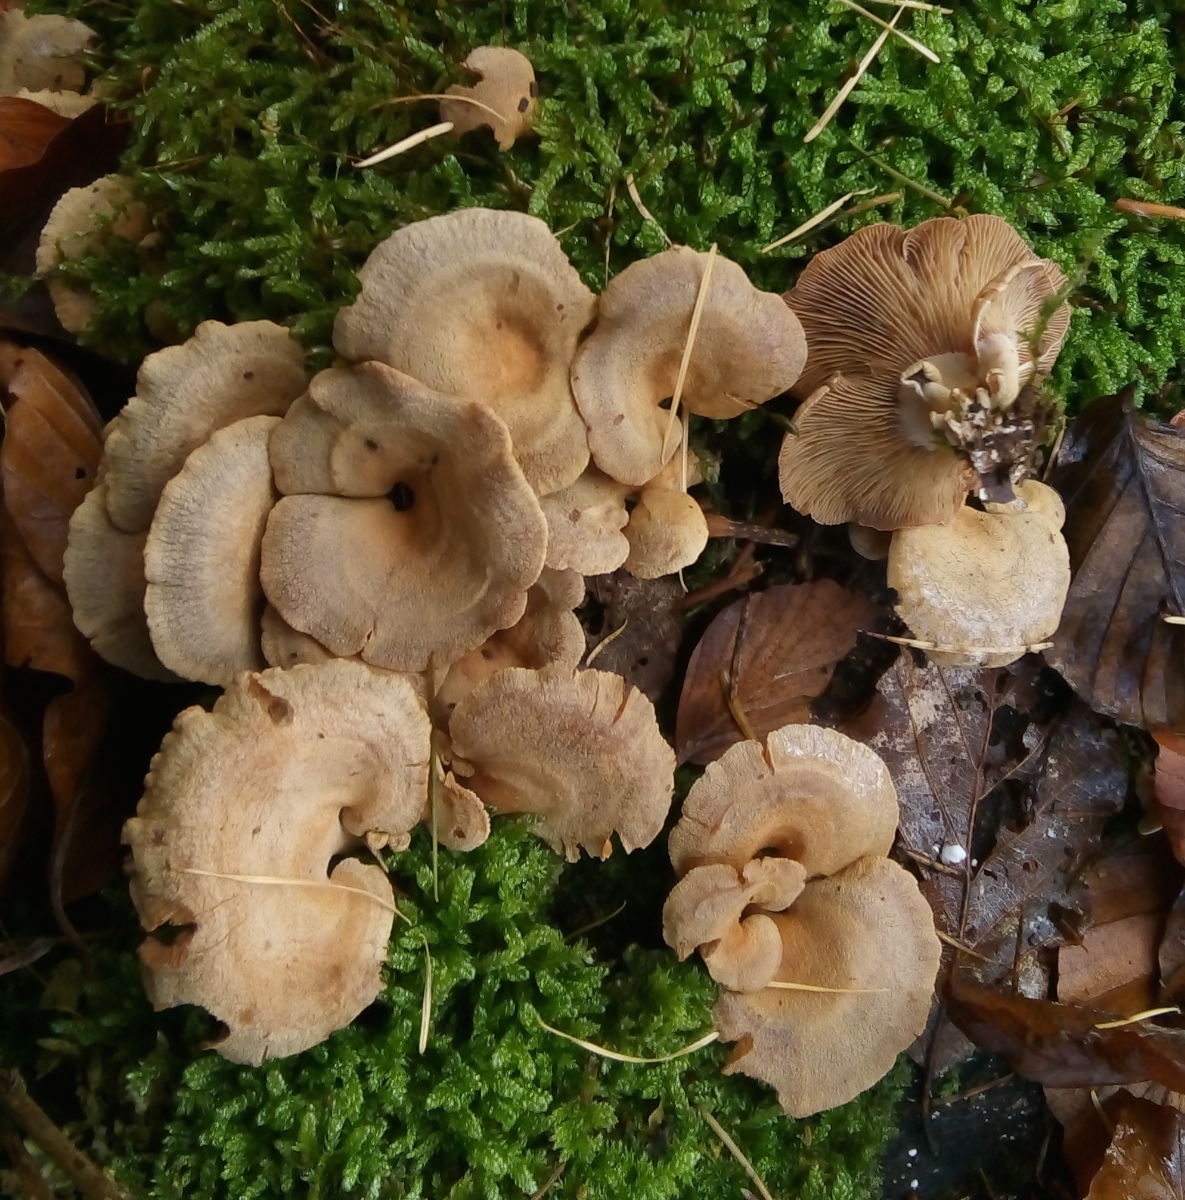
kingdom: Fungi
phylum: Basidiomycota
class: Agaricomycetes
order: Agaricales
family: Mycenaceae
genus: Panellus
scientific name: Panellus stipticus
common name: kliddet epaulethat
